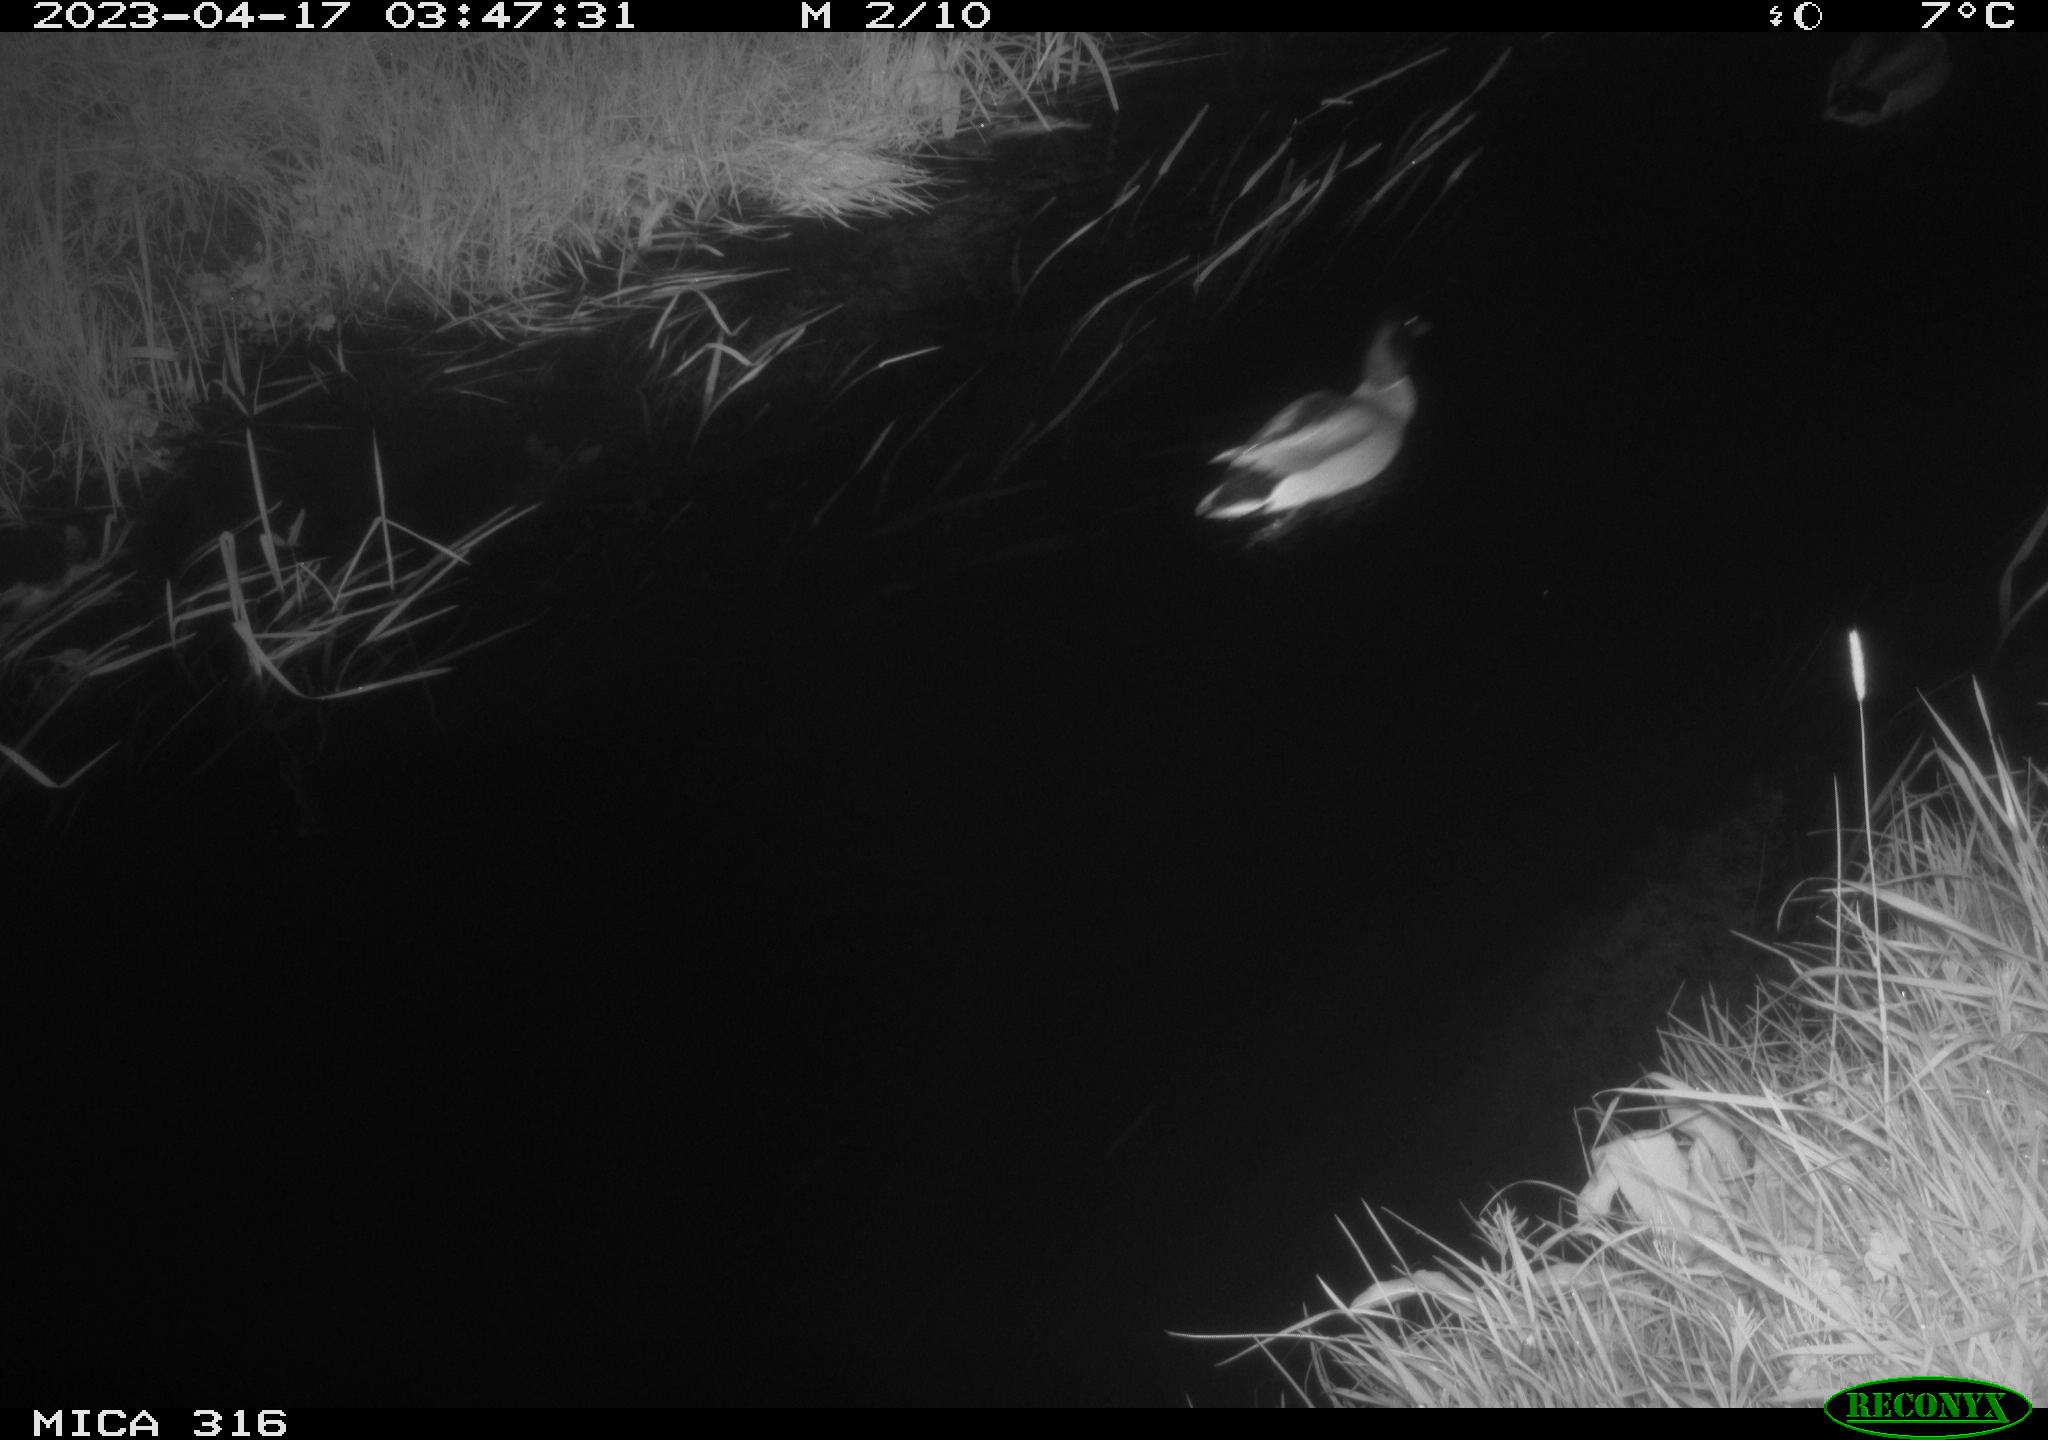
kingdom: Animalia
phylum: Chordata
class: Aves
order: Anseriformes
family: Anatidae
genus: Anas
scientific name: Anas
